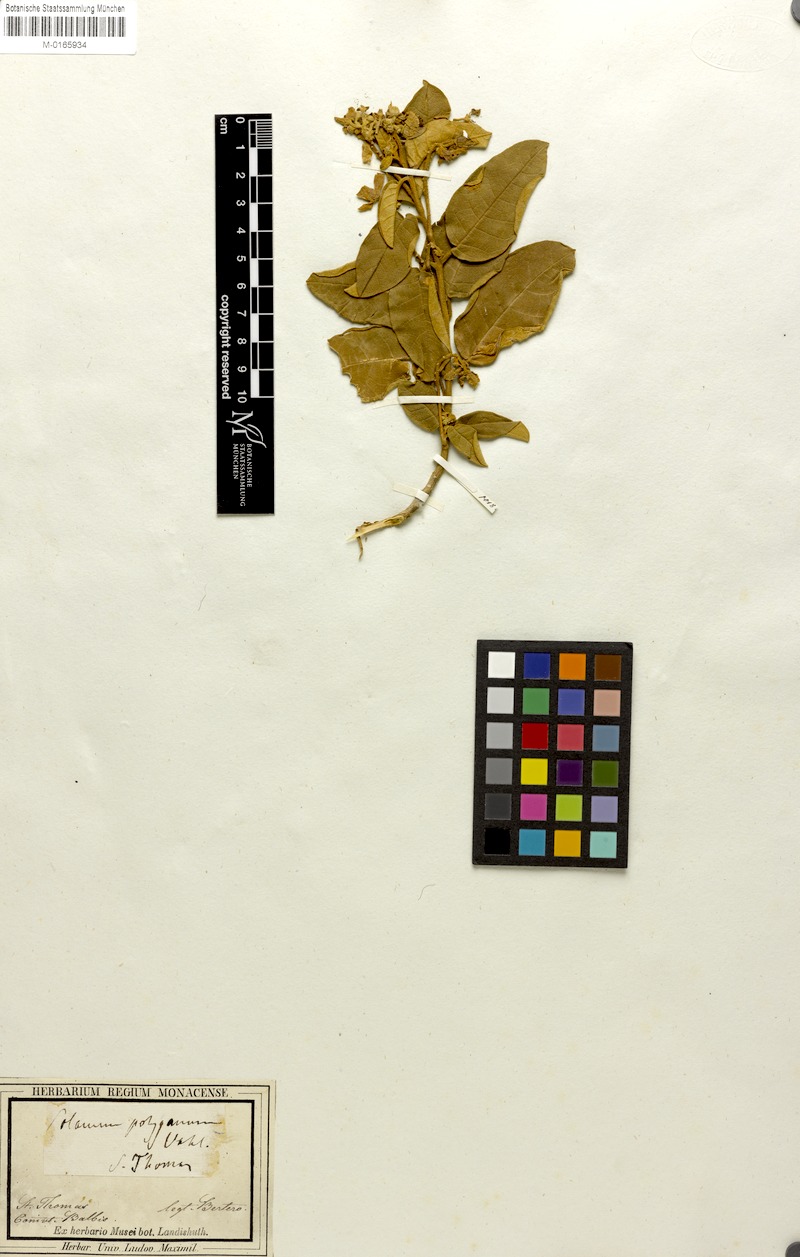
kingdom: Plantae
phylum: Tracheophyta
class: Magnoliopsida
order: Solanales
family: Solanaceae
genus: Solanum
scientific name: Solanum polygamum
